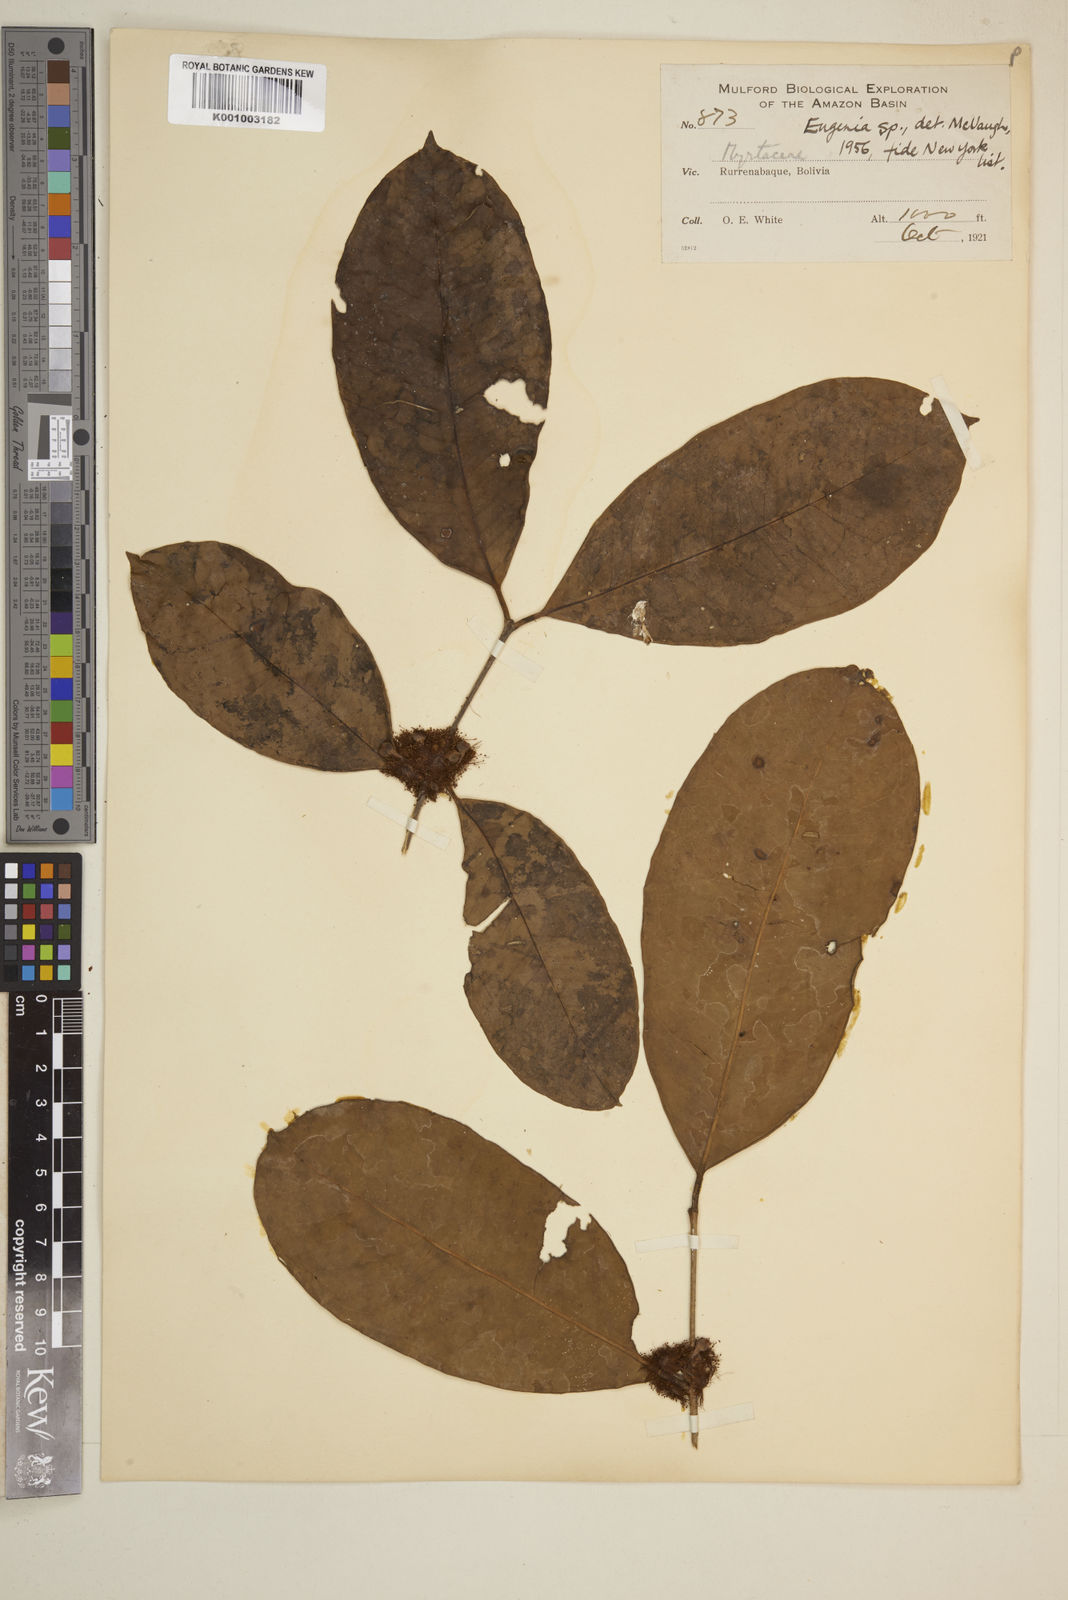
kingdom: Plantae
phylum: Tracheophyta
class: Magnoliopsida
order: Myrtales
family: Myrtaceae
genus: Eugenia
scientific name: Eugenia
